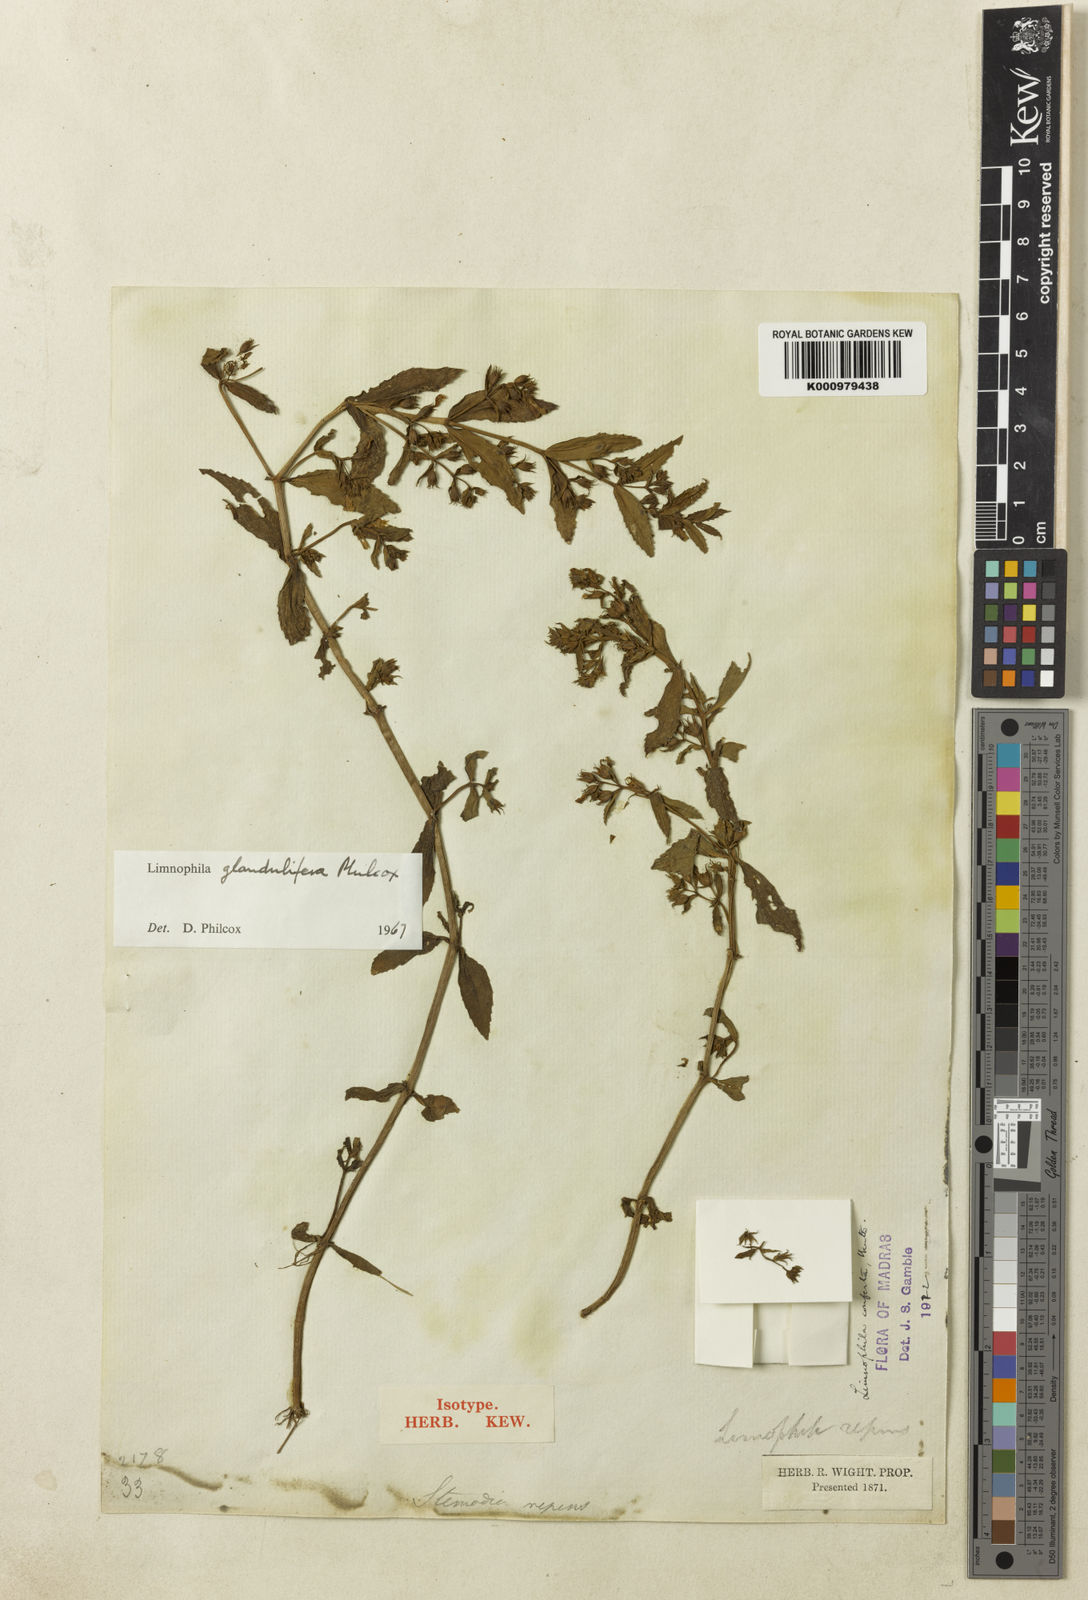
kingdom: Plantae
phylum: Tracheophyta
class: Magnoliopsida
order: Lamiales
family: Plantaginaceae
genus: Limnophila
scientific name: Limnophila glandulifera
